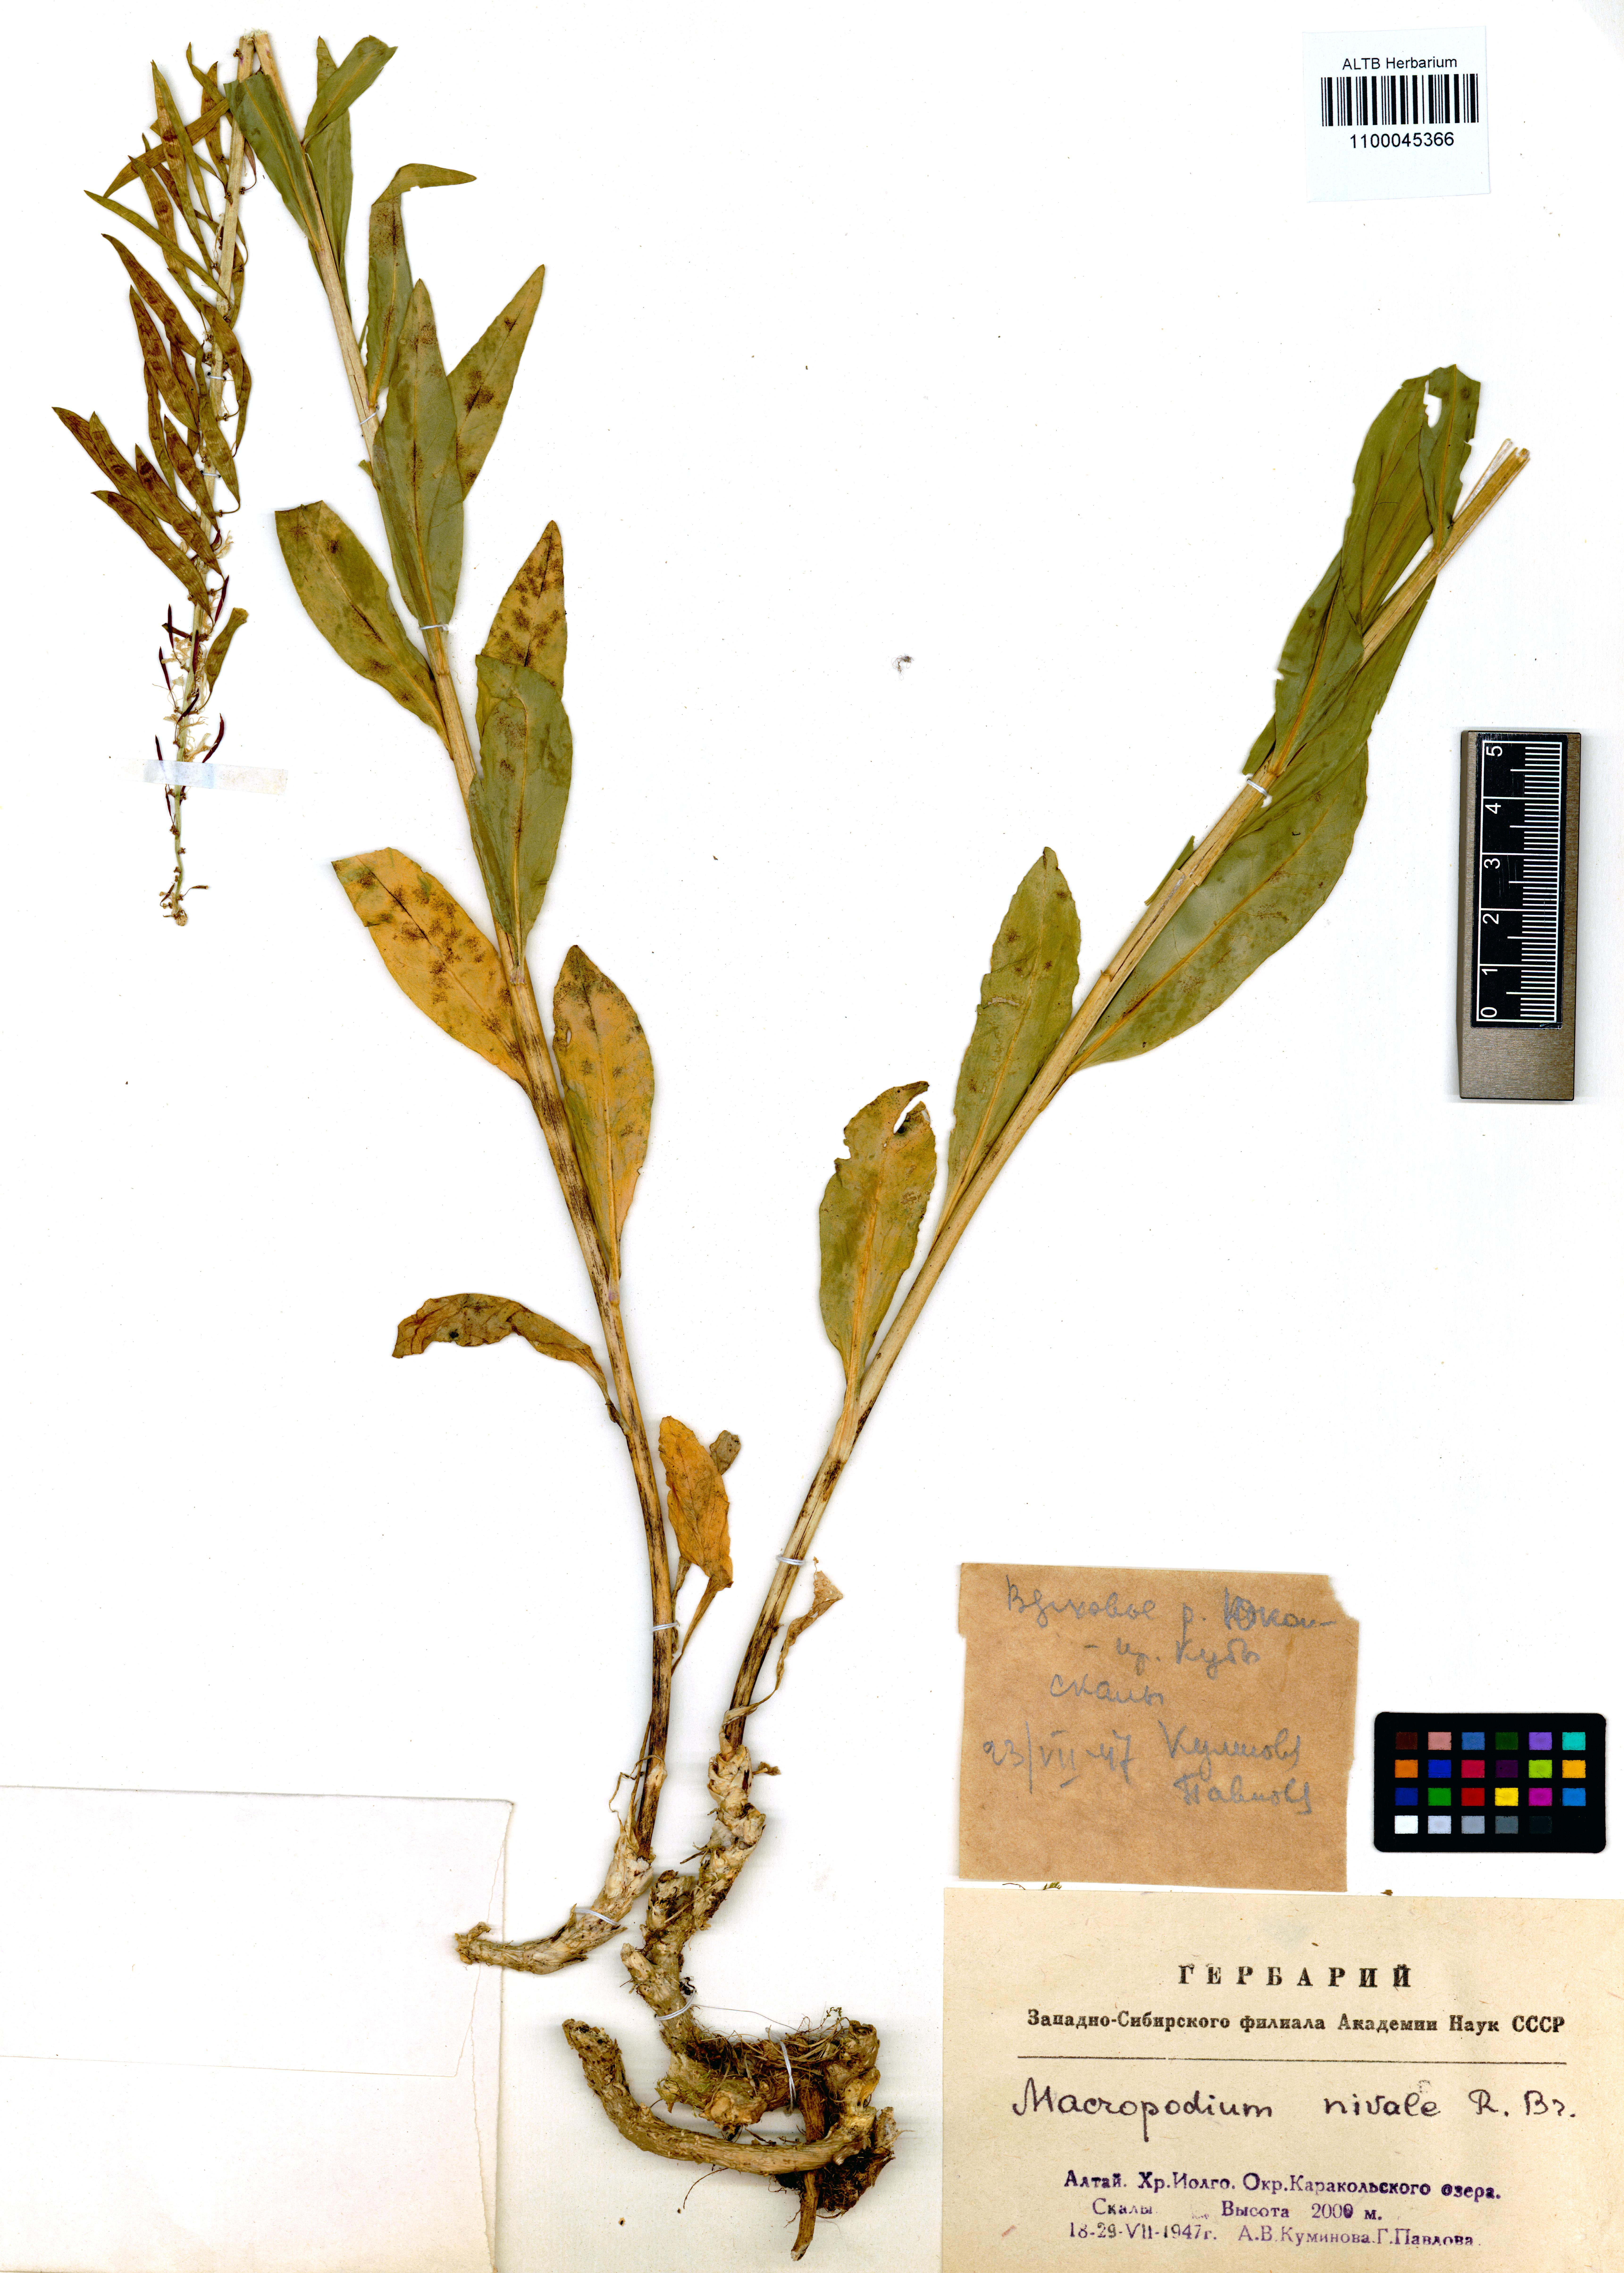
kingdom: Plantae
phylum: Tracheophyta
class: Magnoliopsida
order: Brassicales
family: Brassicaceae
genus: Macropodium
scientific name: Macropodium nivale
